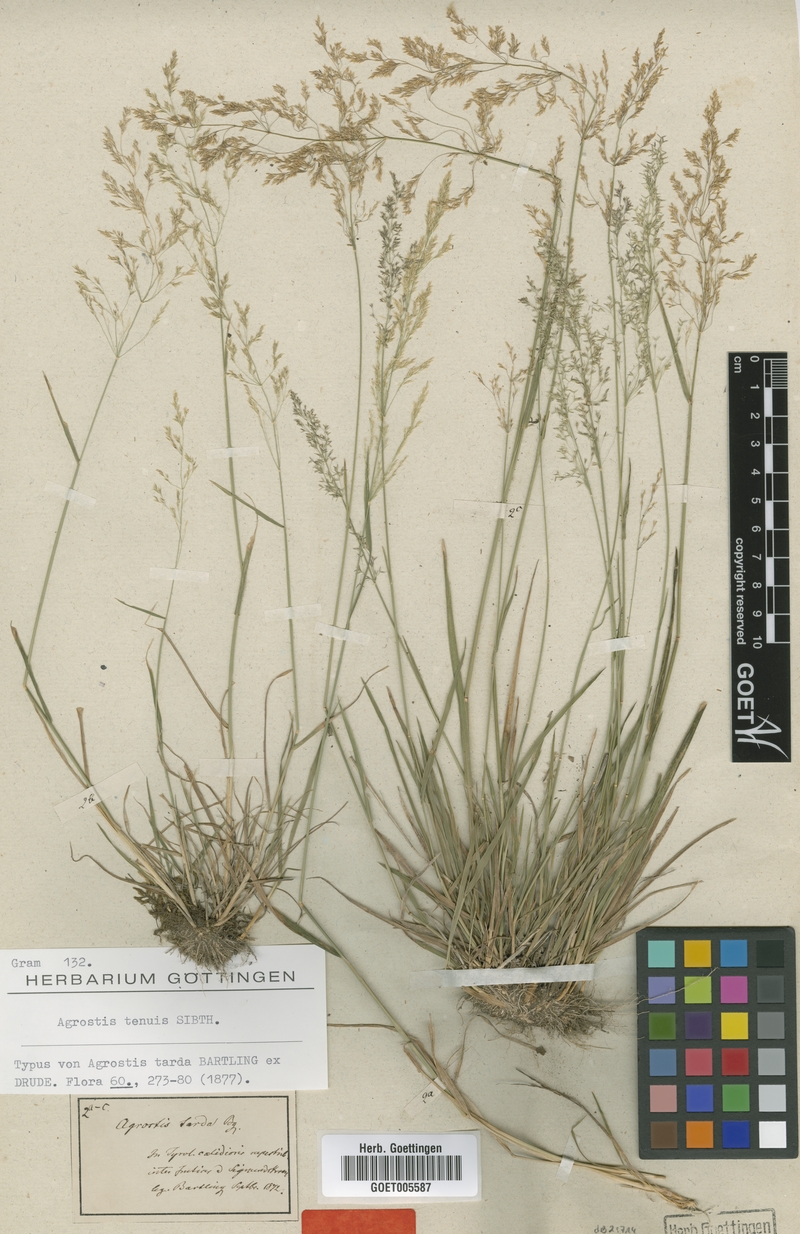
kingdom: Plantae
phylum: Tracheophyta
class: Liliopsida
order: Poales
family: Poaceae
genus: Agrostis
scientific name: Agrostis capillaris
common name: Colonial bentgrass
